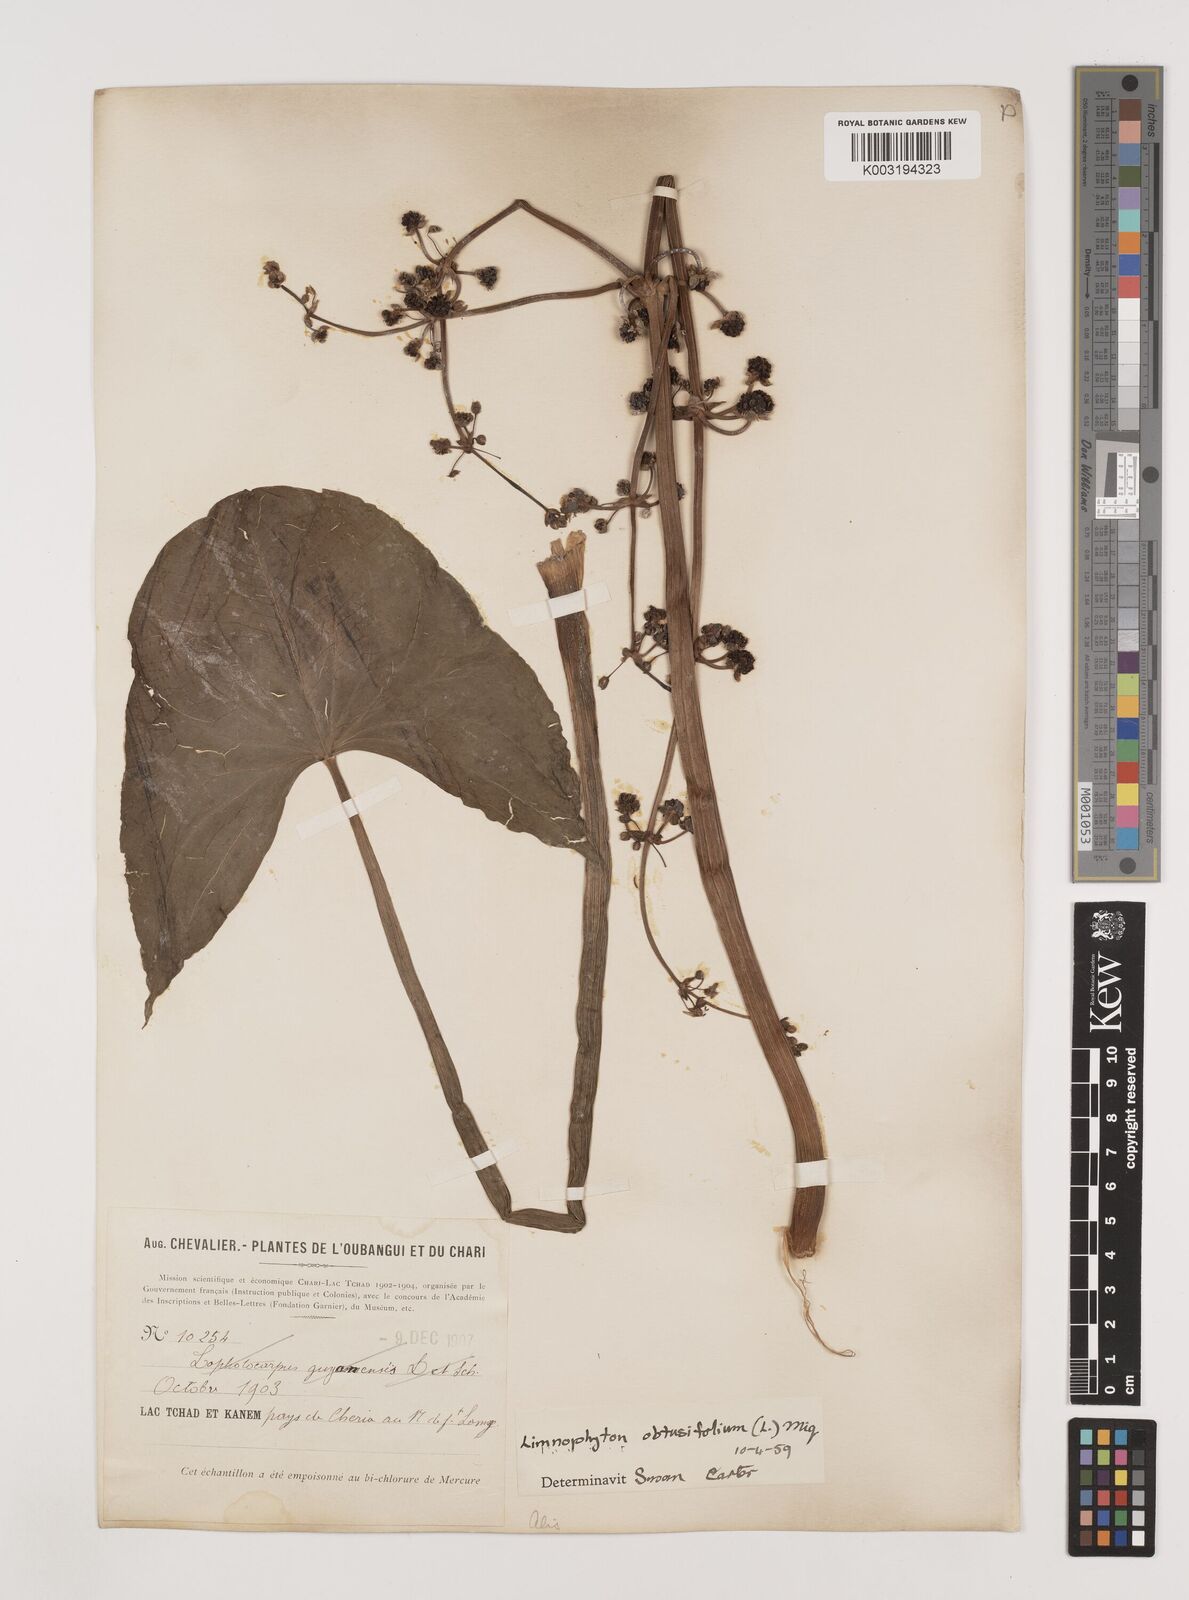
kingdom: Plantae
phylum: Tracheophyta
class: Liliopsida
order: Alismatales
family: Alismataceae
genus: Limnophyton
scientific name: Limnophyton obtusifolium
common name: Arrow head
